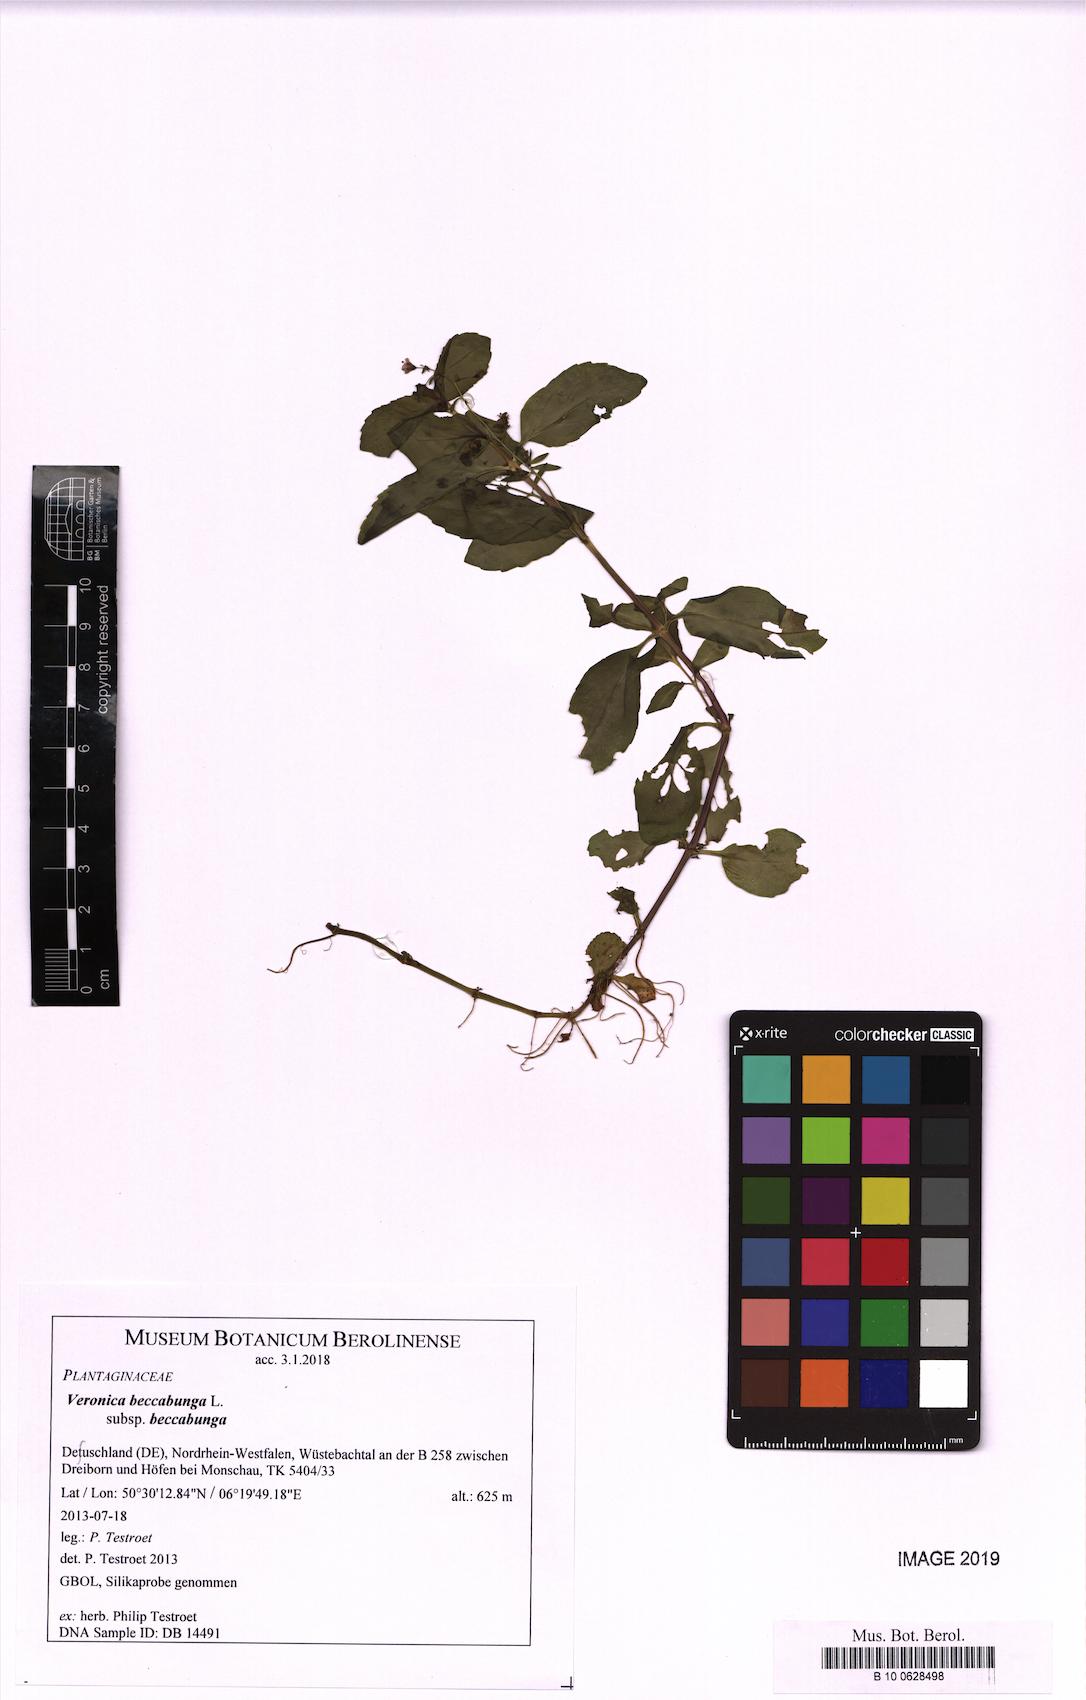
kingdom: Plantae
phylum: Tracheophyta
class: Magnoliopsida
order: Lamiales
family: Plantaginaceae
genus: Veronica
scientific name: Veronica beccabunga
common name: Brooklime
